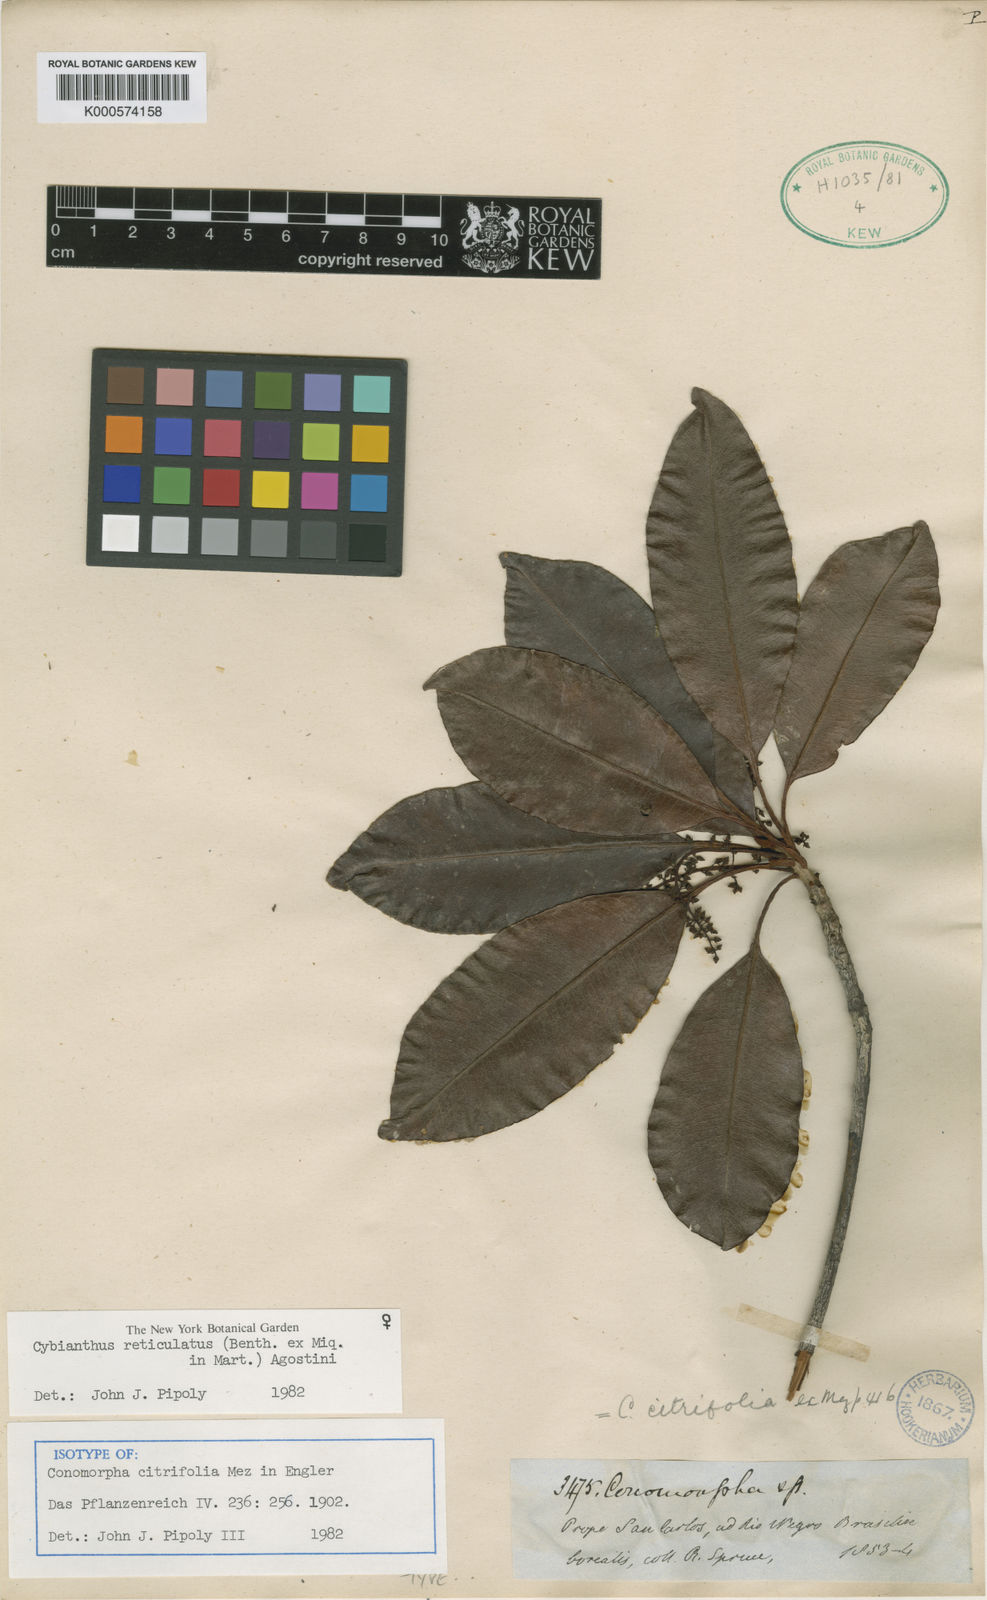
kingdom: Plantae
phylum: Tracheophyta
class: Magnoliopsida
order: Ericales
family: Primulaceae
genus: Cybianthus
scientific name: Cybianthus reticulatus
